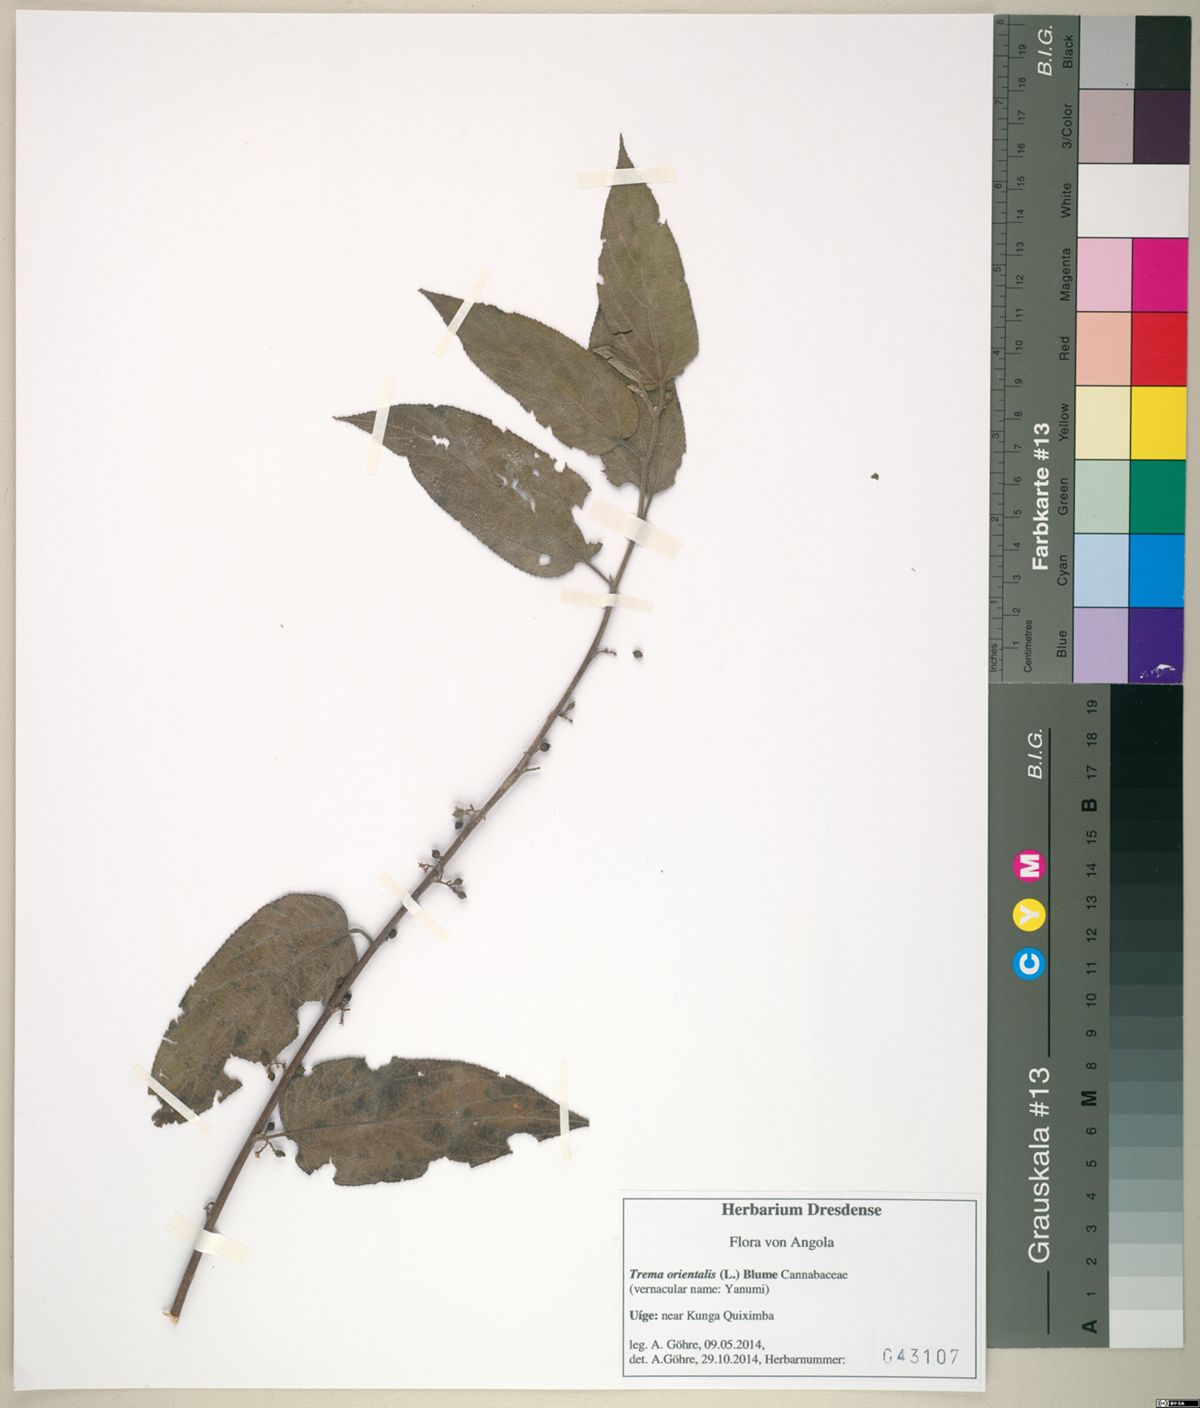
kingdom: Plantae
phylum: Tracheophyta
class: Magnoliopsida
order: Rosales
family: Cannabaceae
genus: Trema
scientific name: Trema orientale
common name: Indian charcoal tree
